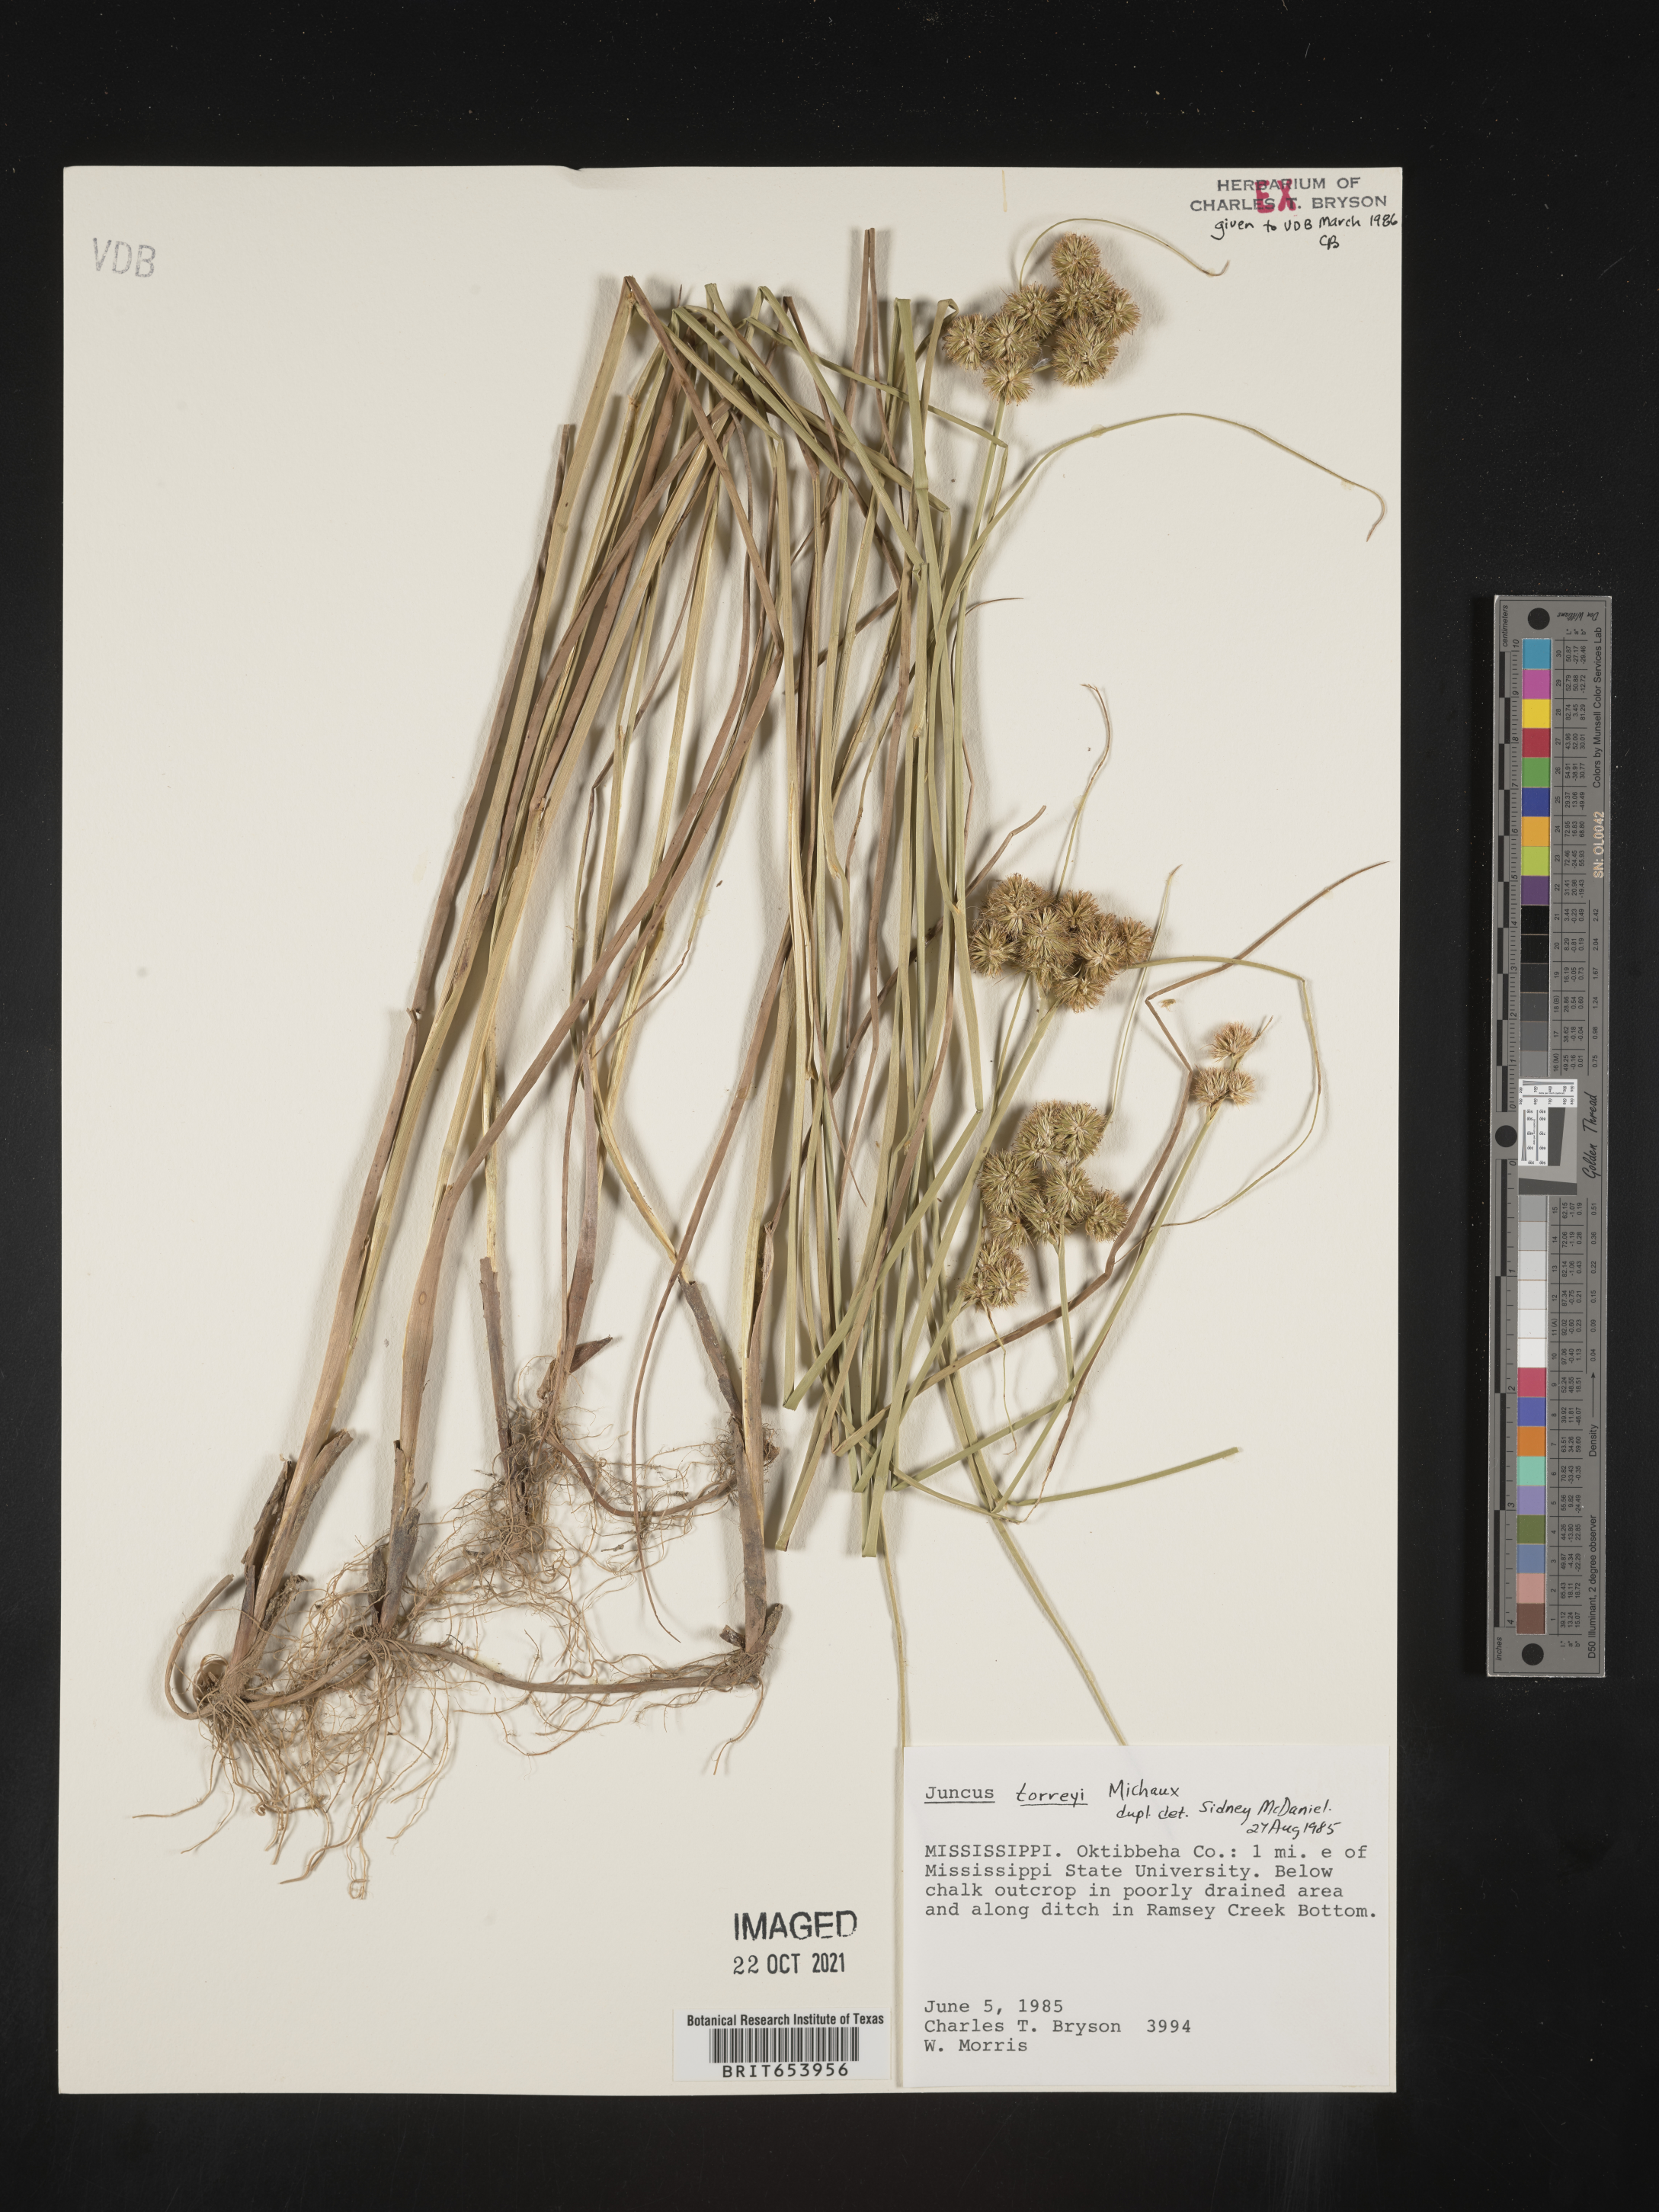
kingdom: Plantae
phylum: Tracheophyta
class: Liliopsida
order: Poales
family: Juncaceae
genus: Juncus
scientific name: Juncus torreyi
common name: Torrey's rush
